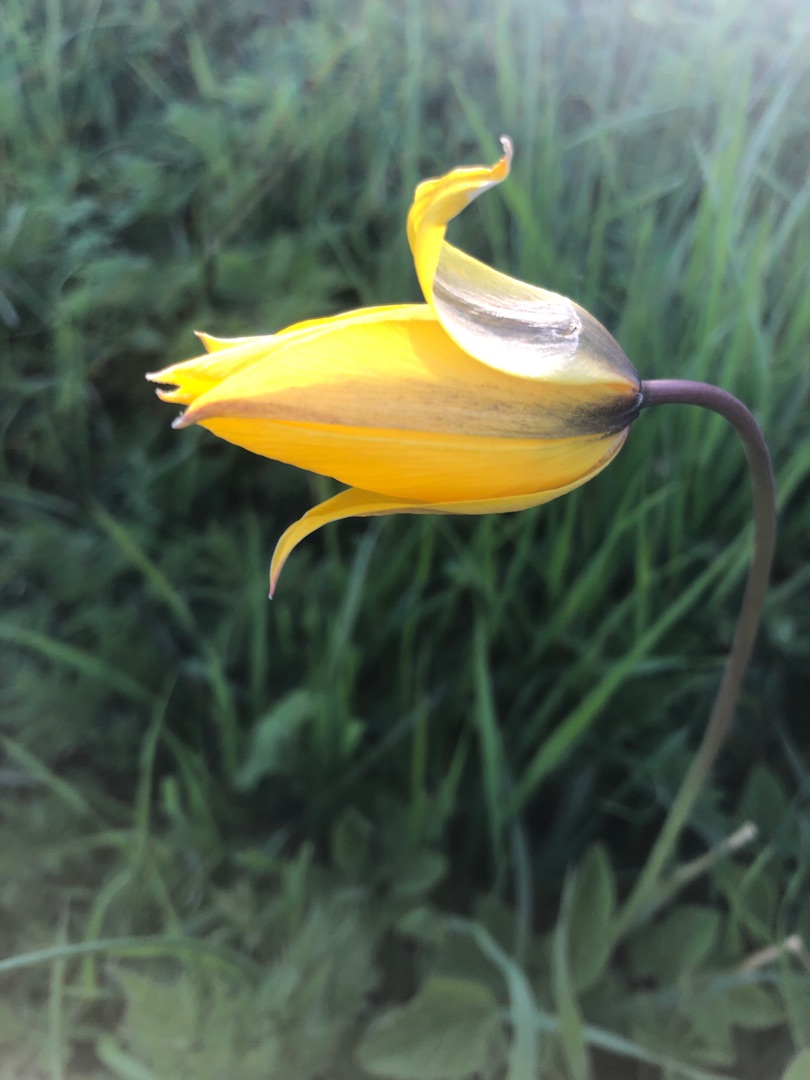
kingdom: Plantae
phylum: Tracheophyta
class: Liliopsida
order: Liliales
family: Liliaceae
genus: Tulipa
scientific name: Tulipa sylvestris
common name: Vild tulipan
